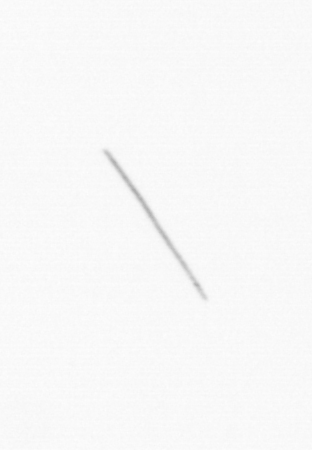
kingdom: Chromista
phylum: Ochrophyta
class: Bacillariophyceae
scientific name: Bacillariophyceae
